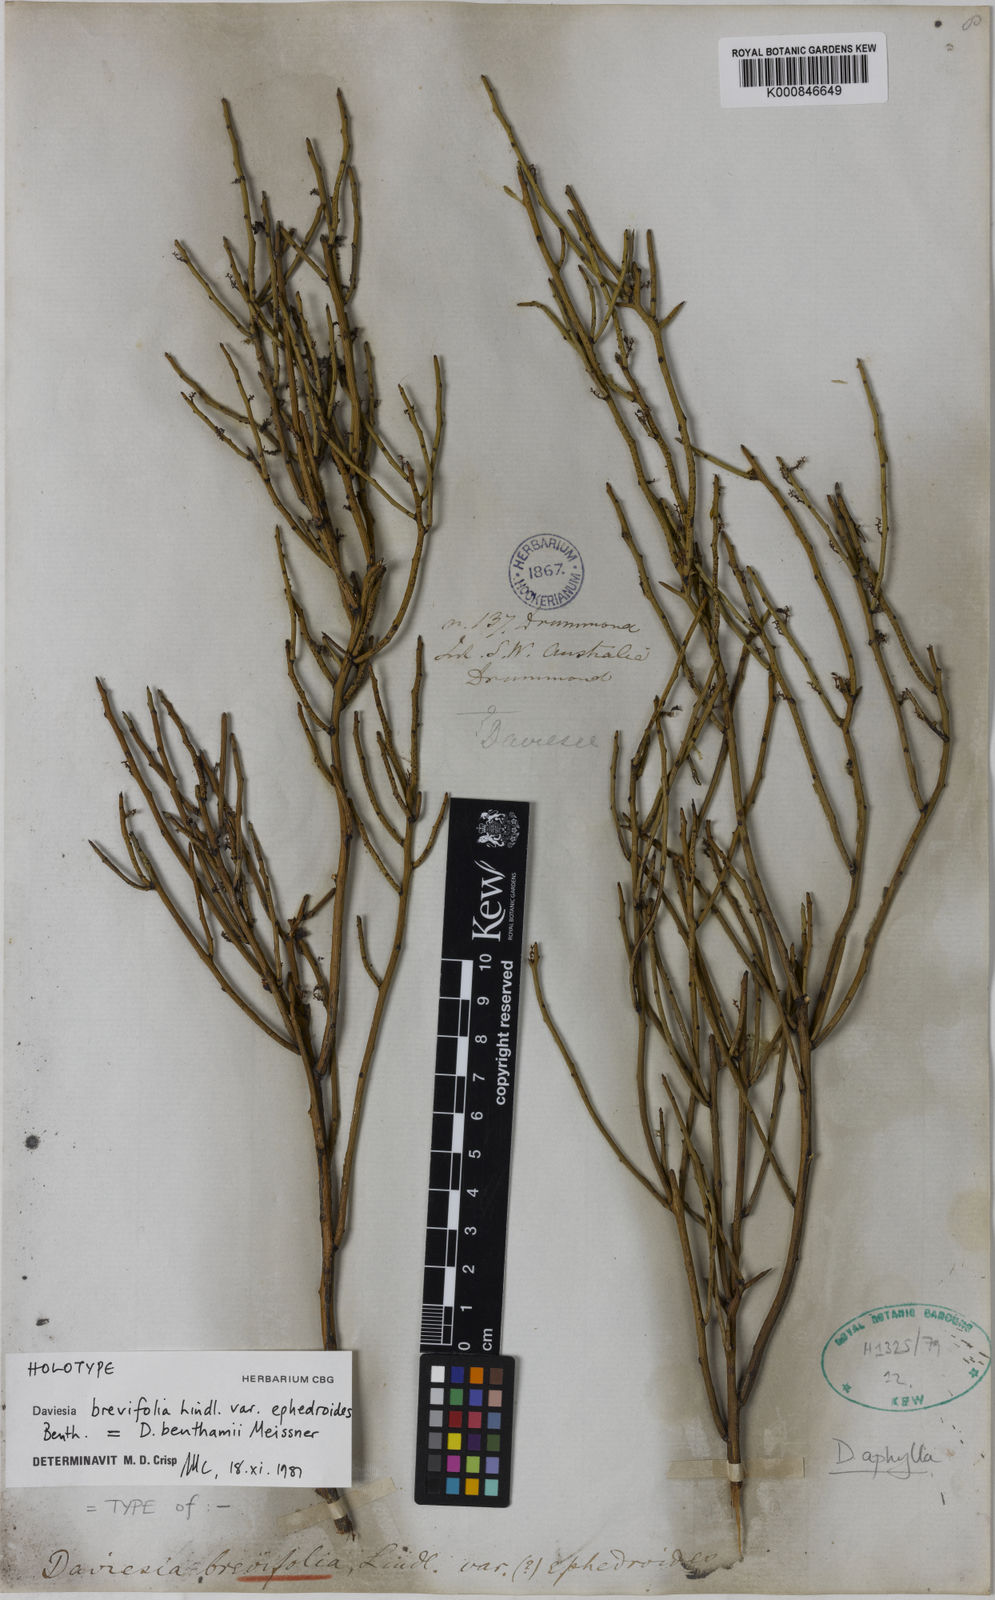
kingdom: Plantae
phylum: Tracheophyta
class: Magnoliopsida
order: Fabales
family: Fabaceae
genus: Daviesia
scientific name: Daviesia benthamii
